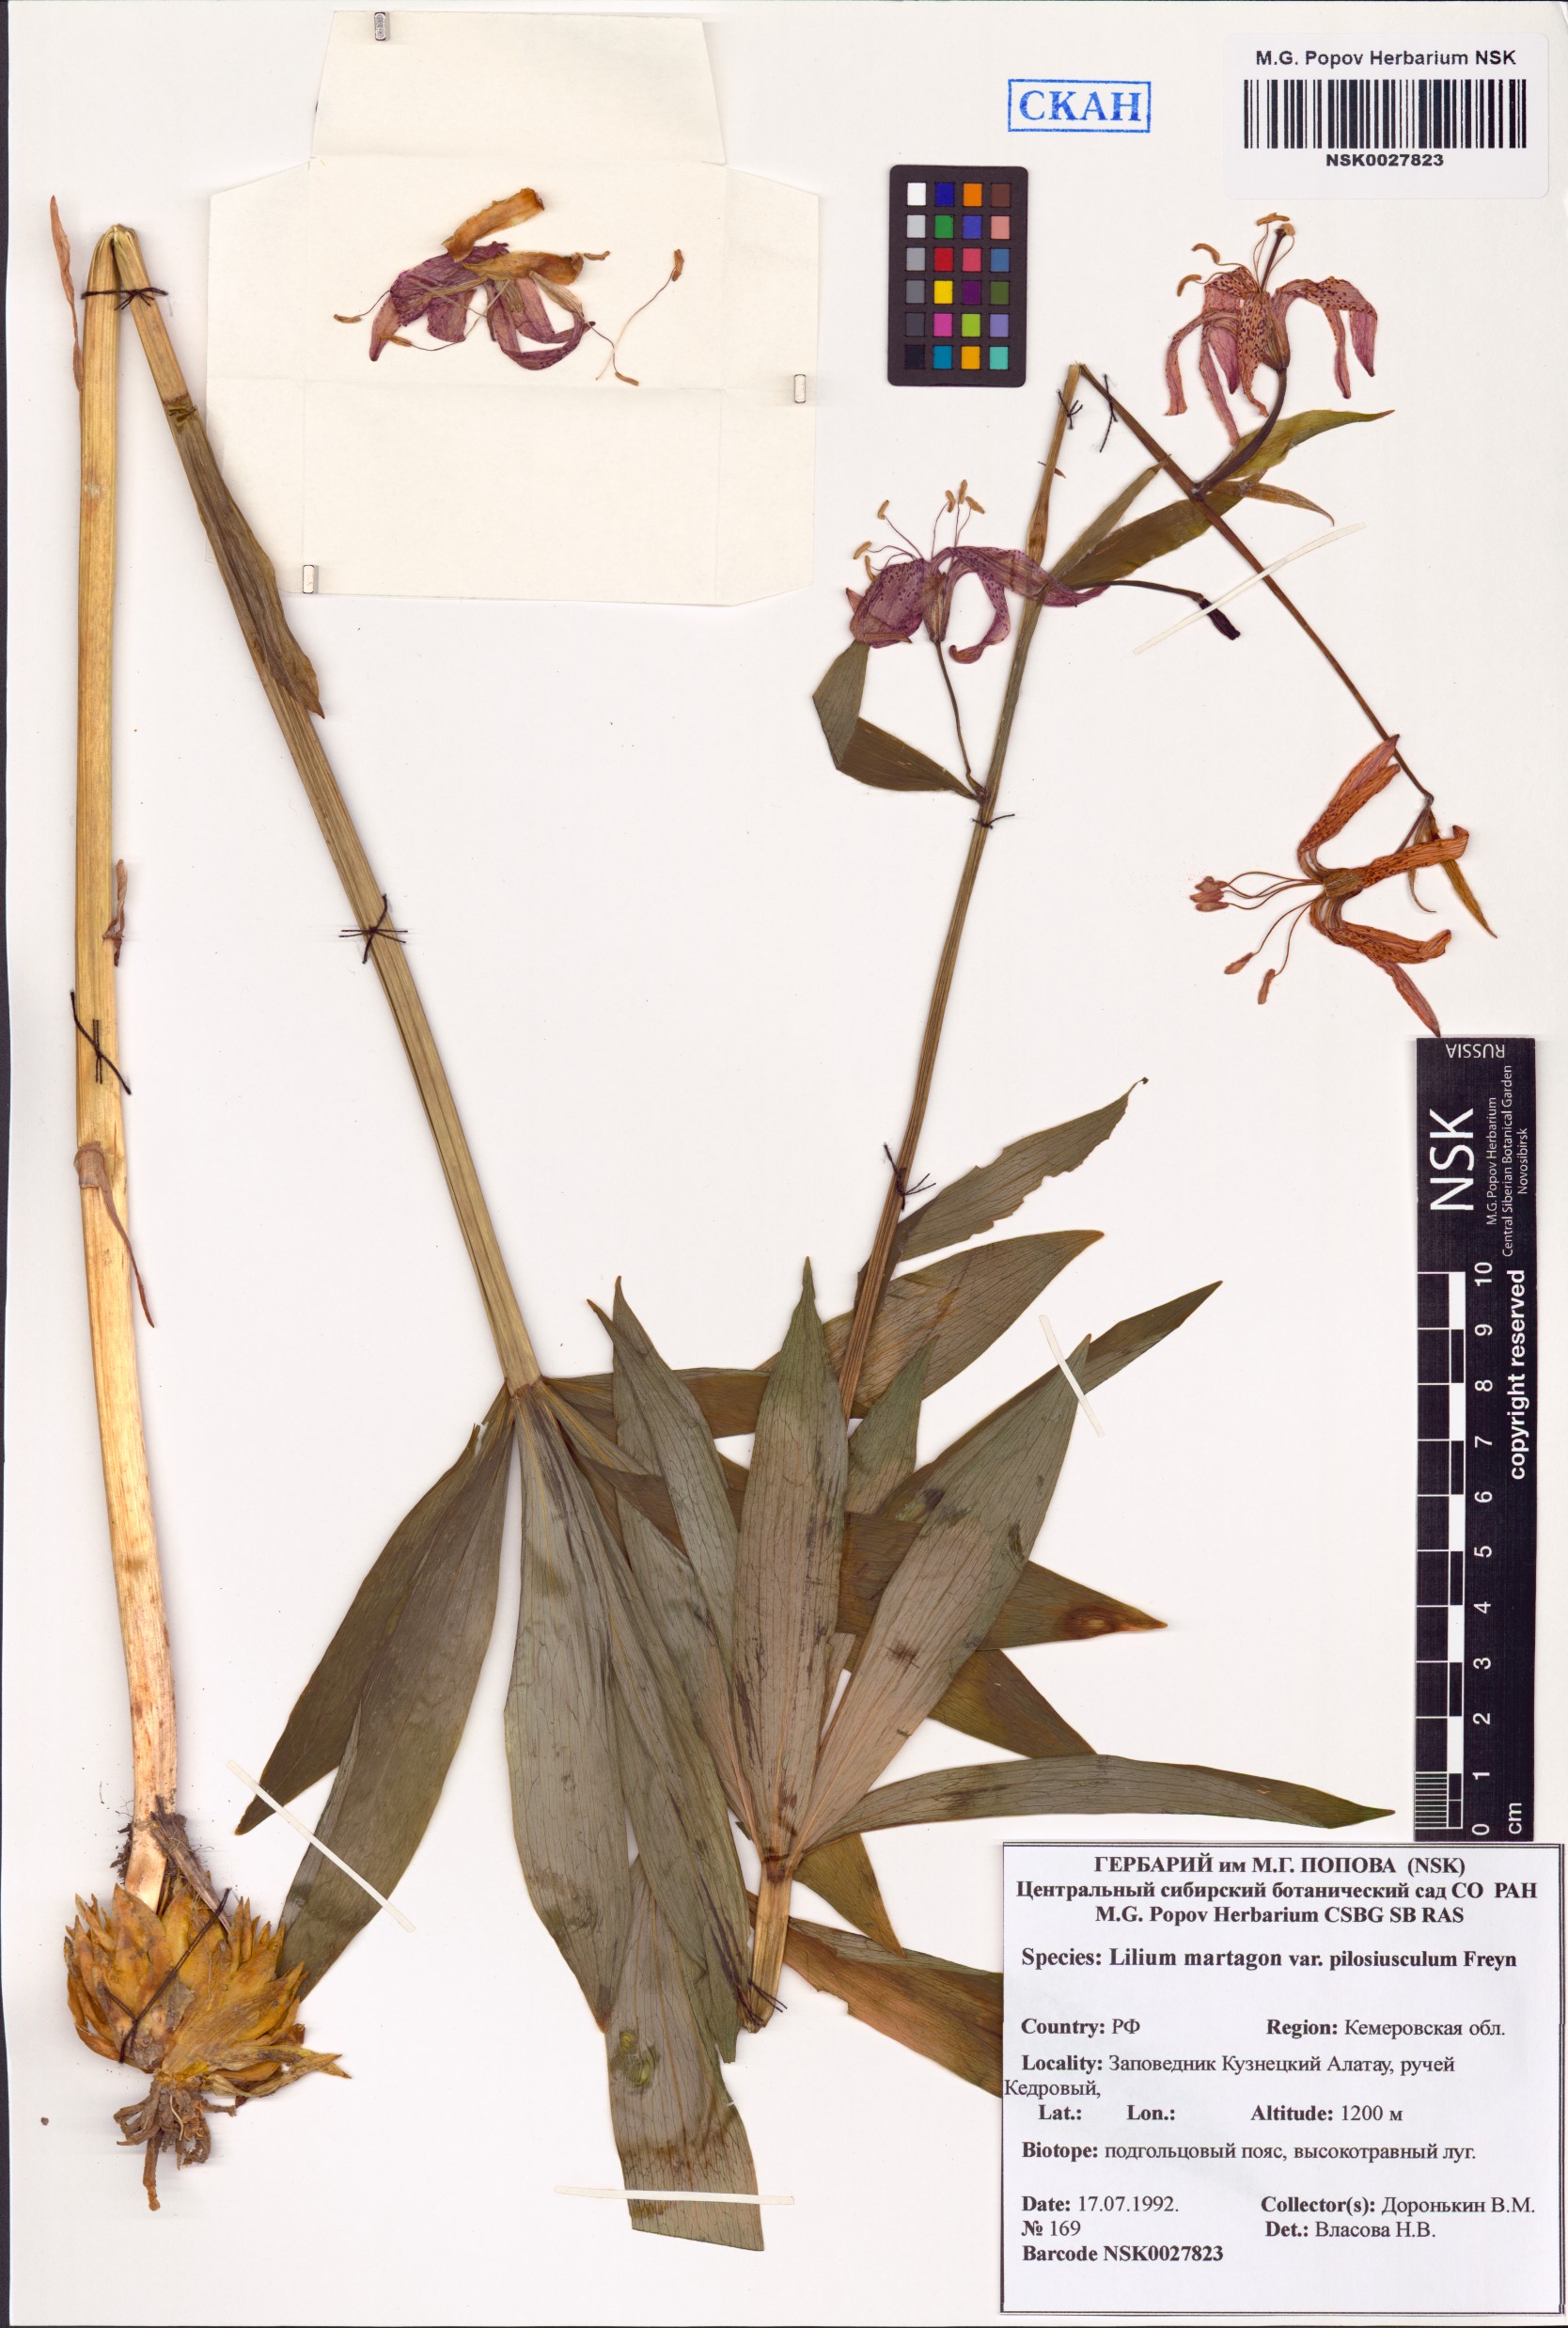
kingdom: Plantae
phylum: Tracheophyta
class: Liliopsida
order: Liliales
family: Liliaceae
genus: Lilium
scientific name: Lilium martagon
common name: Martagon lily
